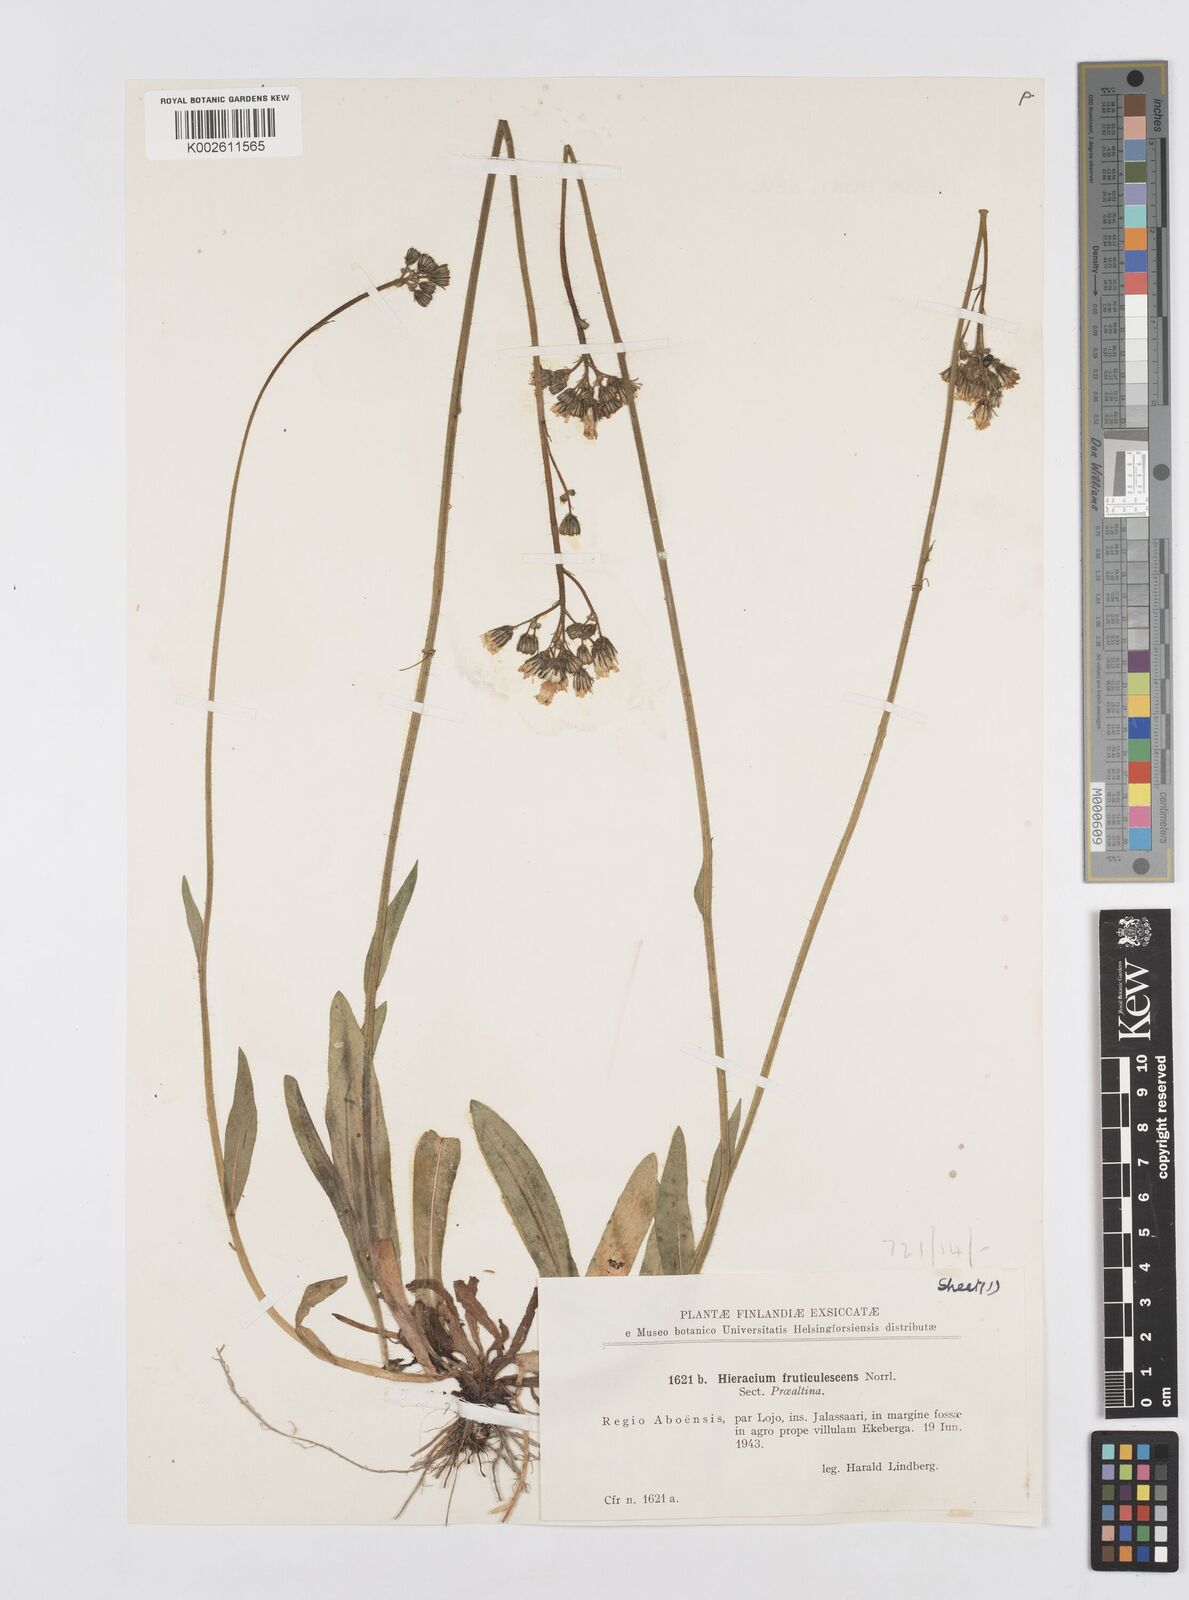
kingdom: Plantae
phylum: Tracheophyta
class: Magnoliopsida
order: Asterales
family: Asteraceae
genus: Pilosella
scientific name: Pilosella erythrochrista
